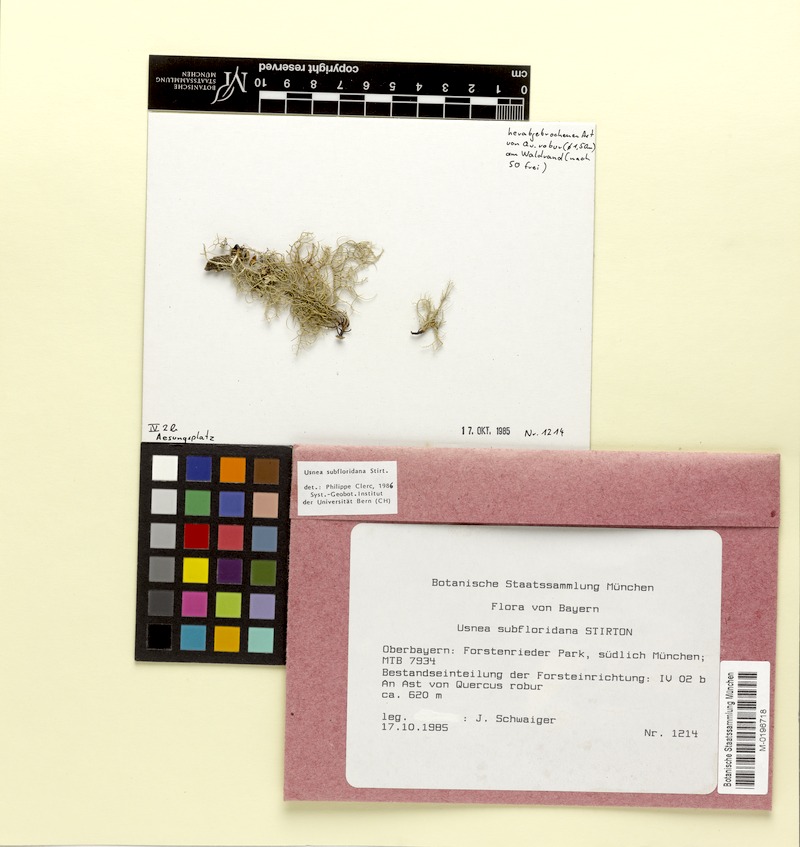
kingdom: Fungi
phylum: Ascomycota
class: Lecanoromycetes
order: Lecanorales
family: Parmeliaceae
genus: Usnea
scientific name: Usnea subfloridana
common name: Boreal beard lichen
